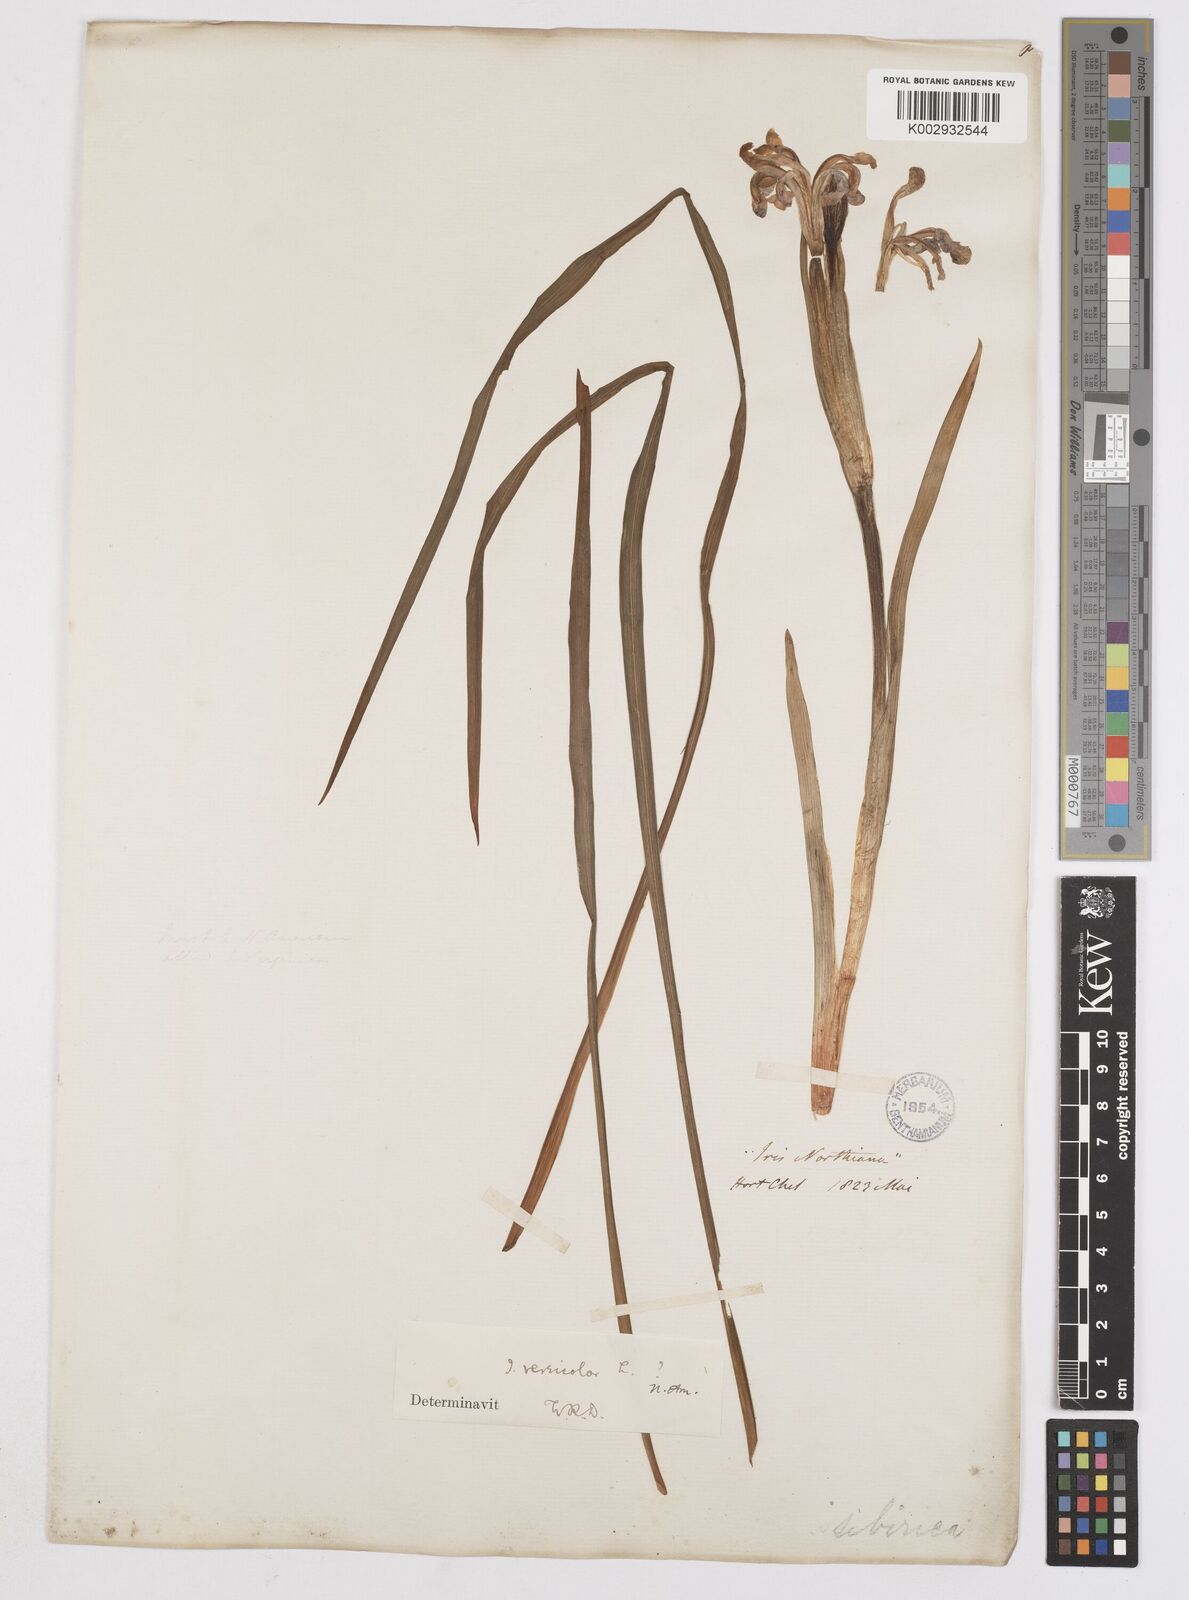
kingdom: Plantae
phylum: Tracheophyta
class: Liliopsida
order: Asparagales
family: Iridaceae
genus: Iris
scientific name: Iris versicolor
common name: Purple iris
